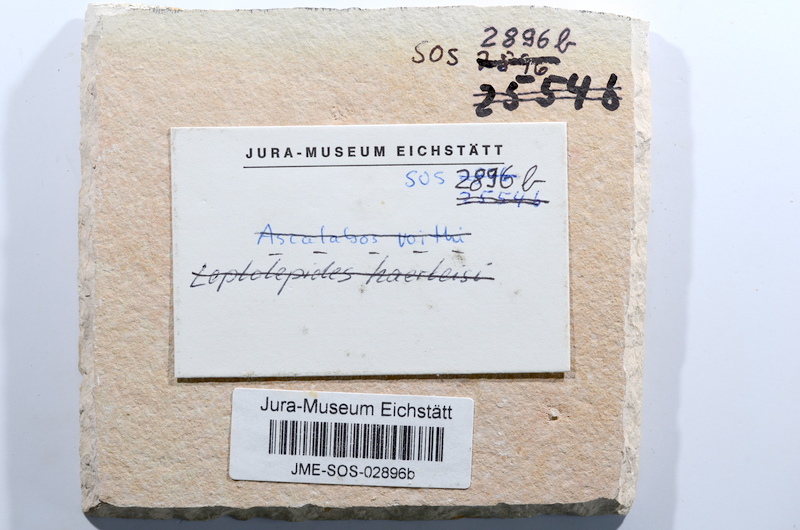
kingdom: Animalia
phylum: Chordata
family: Ascalaboidae
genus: Ascalabos
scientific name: Ascalabos voithii
